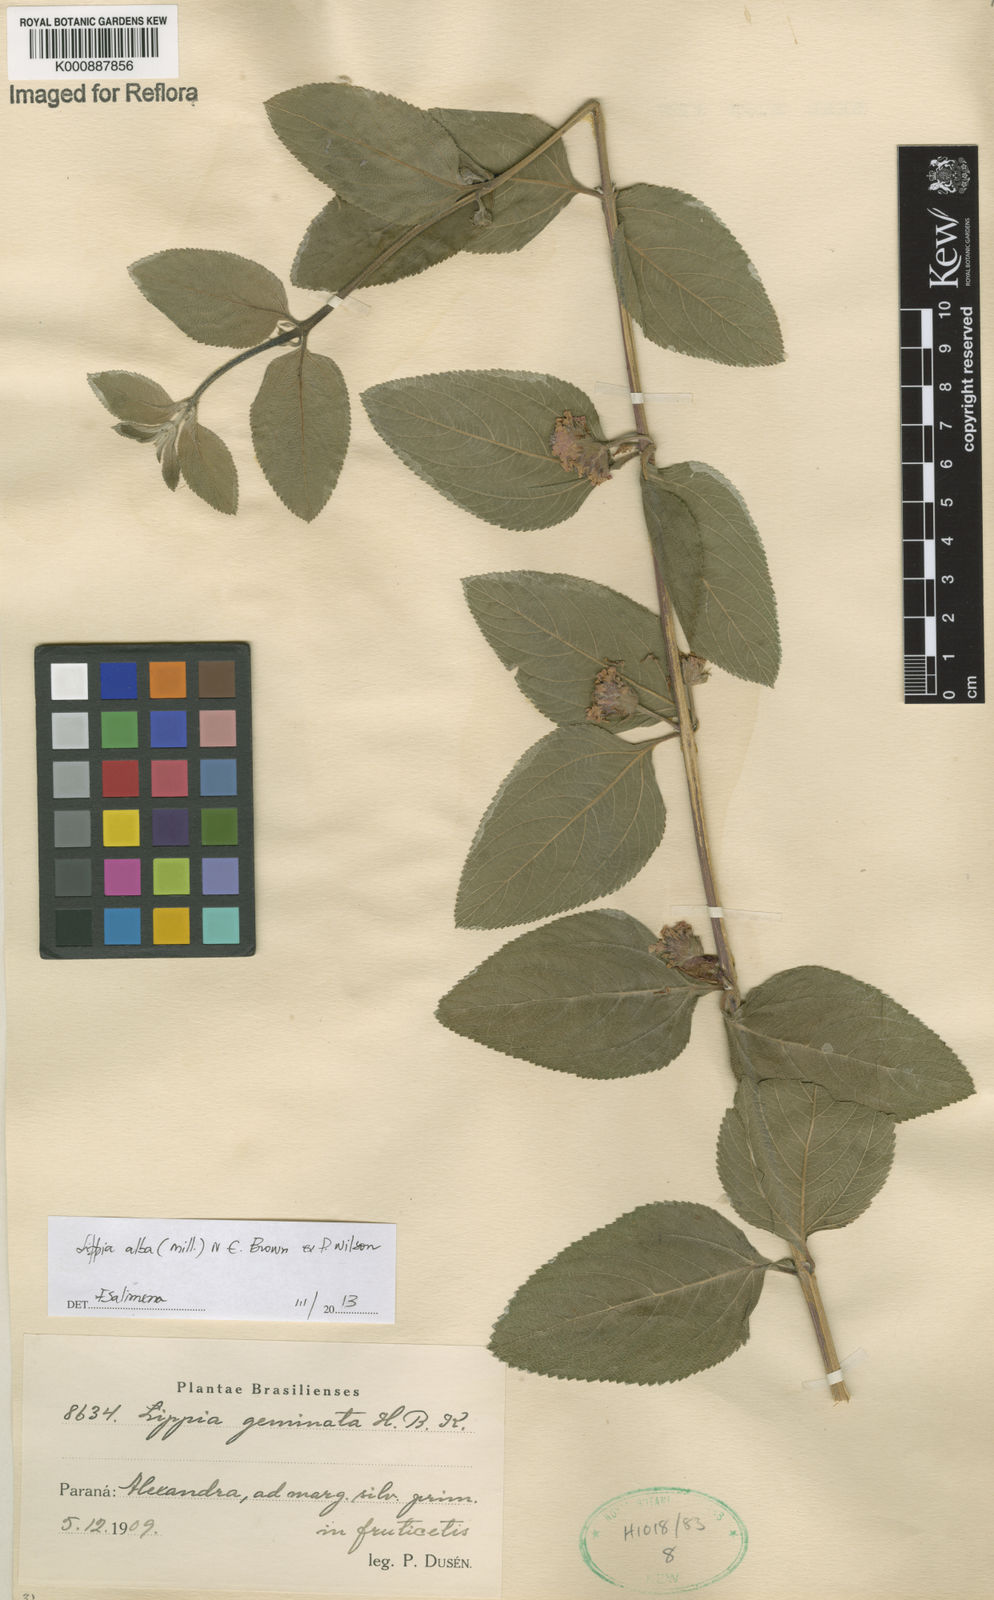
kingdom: Plantae
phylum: Tracheophyta
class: Magnoliopsida
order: Lamiales
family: Verbenaceae
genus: Lippia
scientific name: Lippia
